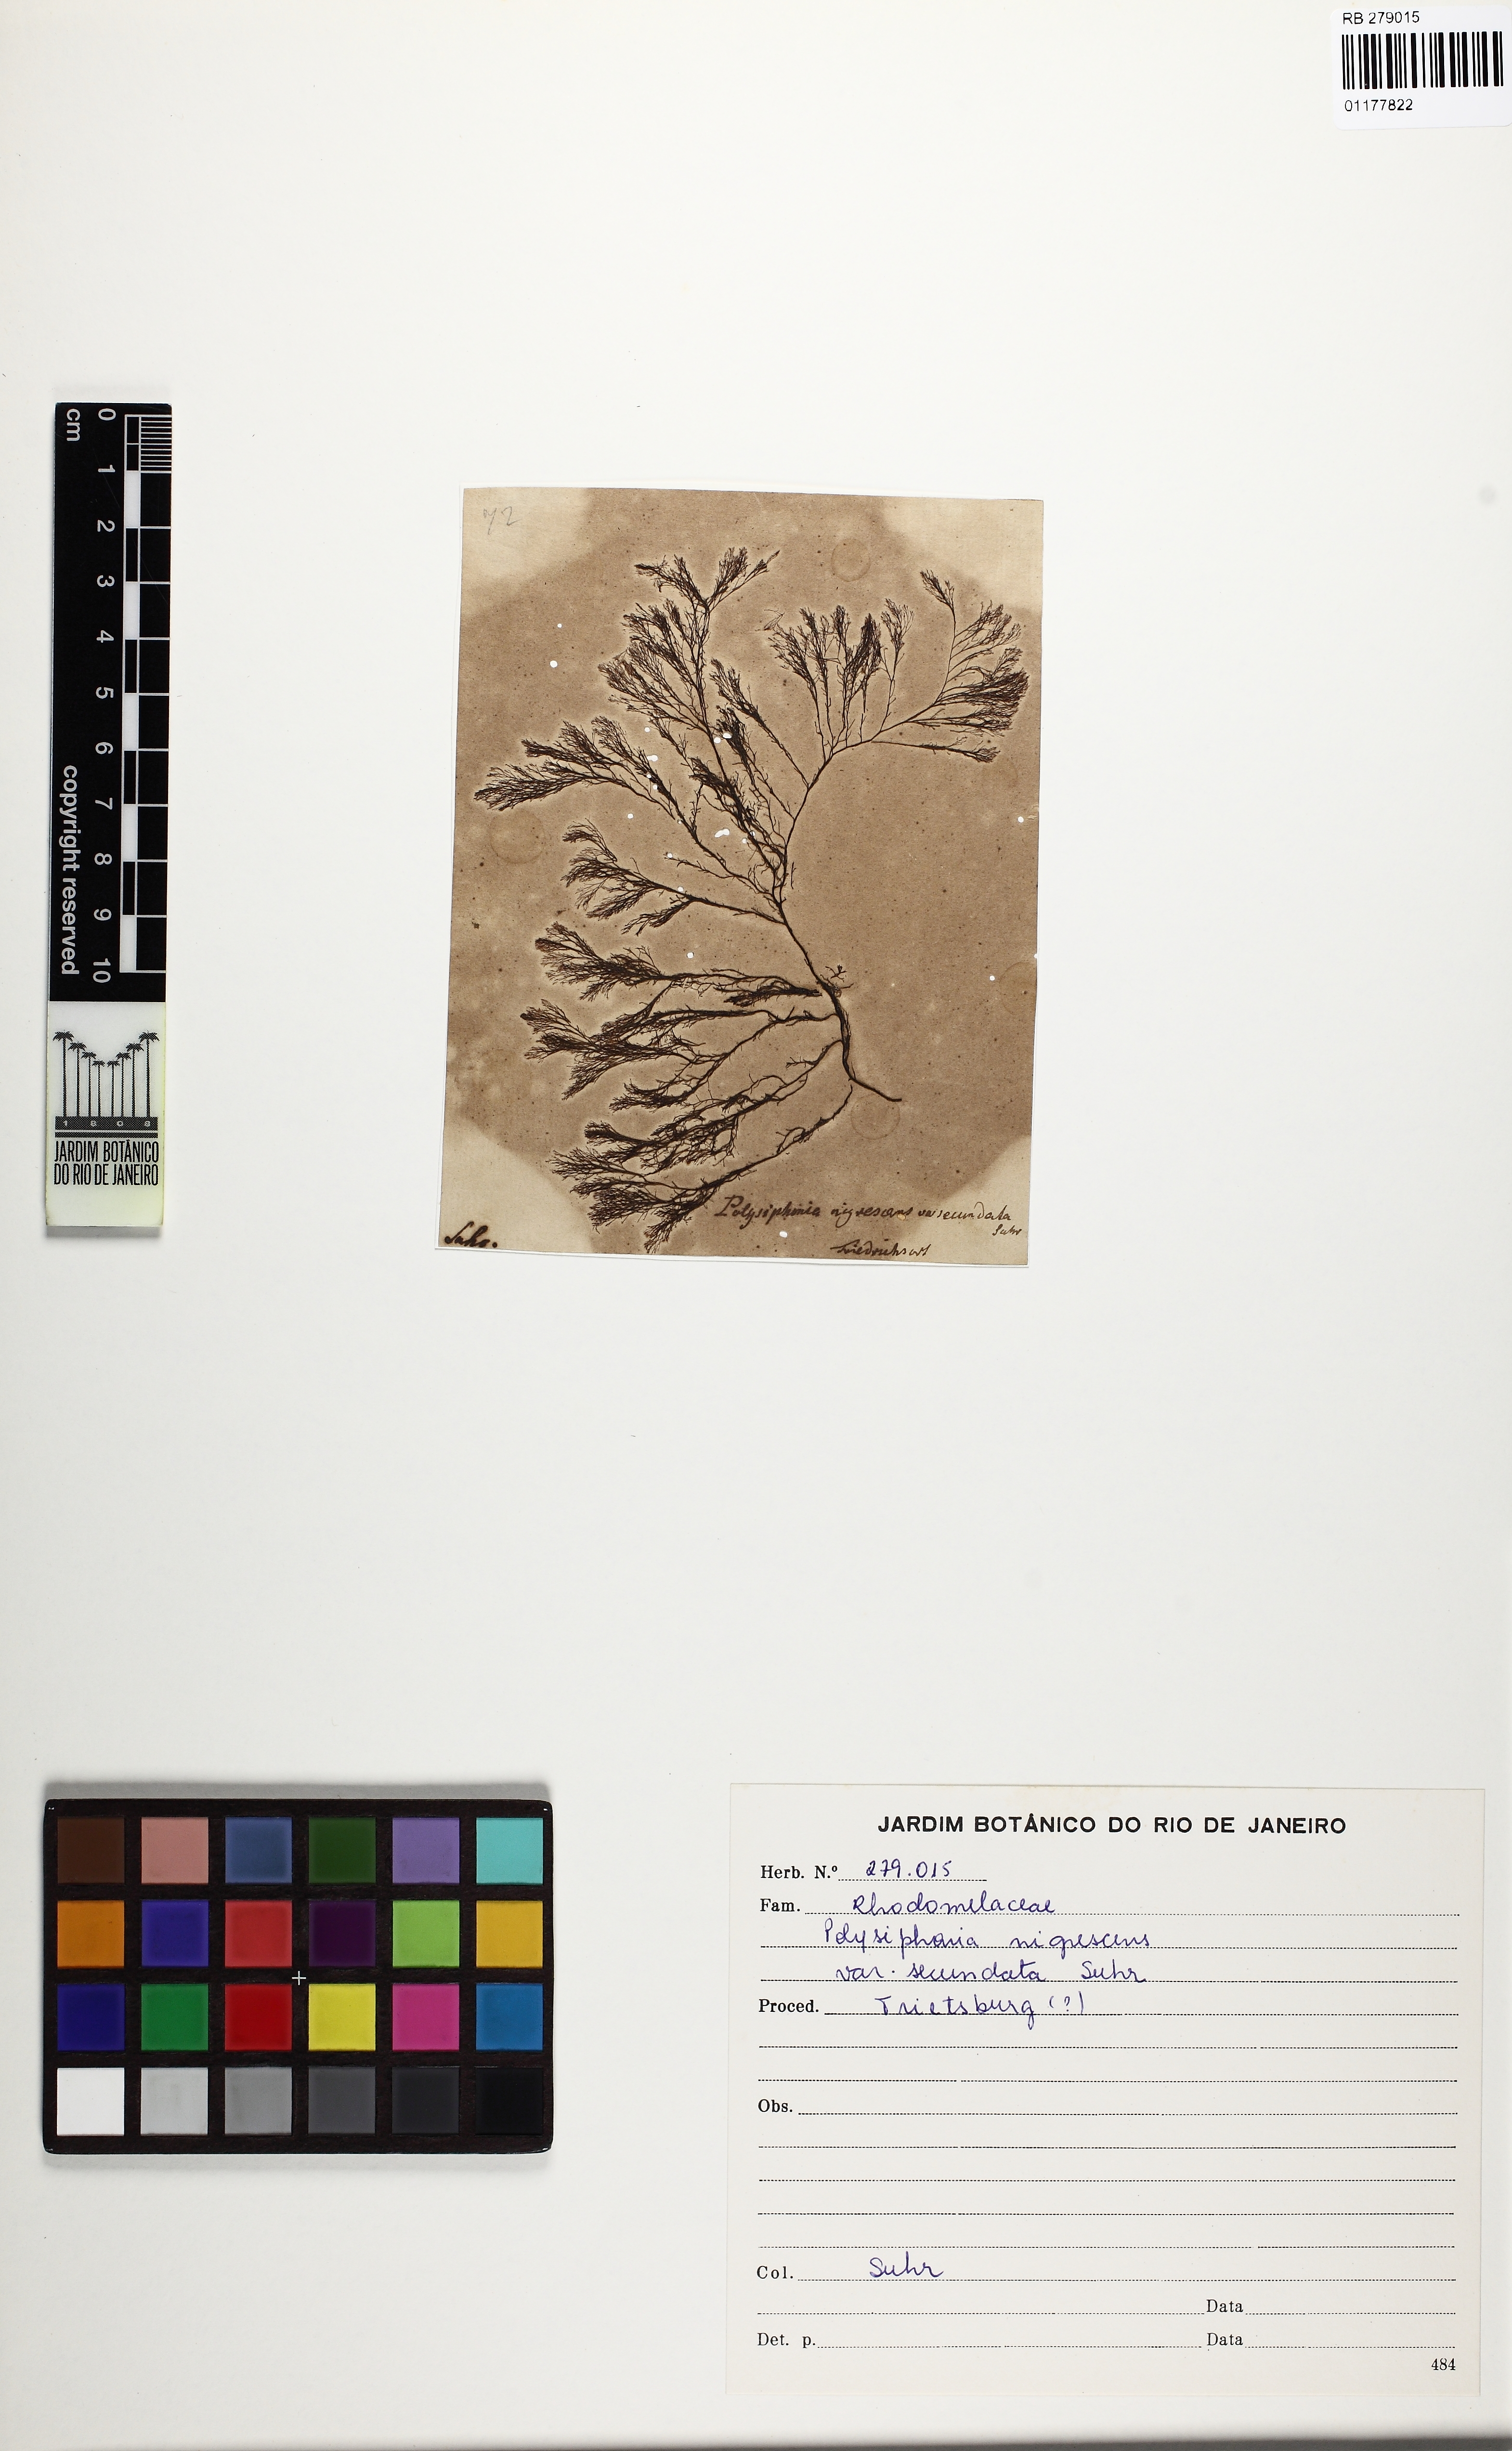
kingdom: Plantae
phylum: Rhodophyta
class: Florideophyceae
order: Ceramiales
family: Rhodomelaceae
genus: Polysiphonia
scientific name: Polysiphonia nigrescens
